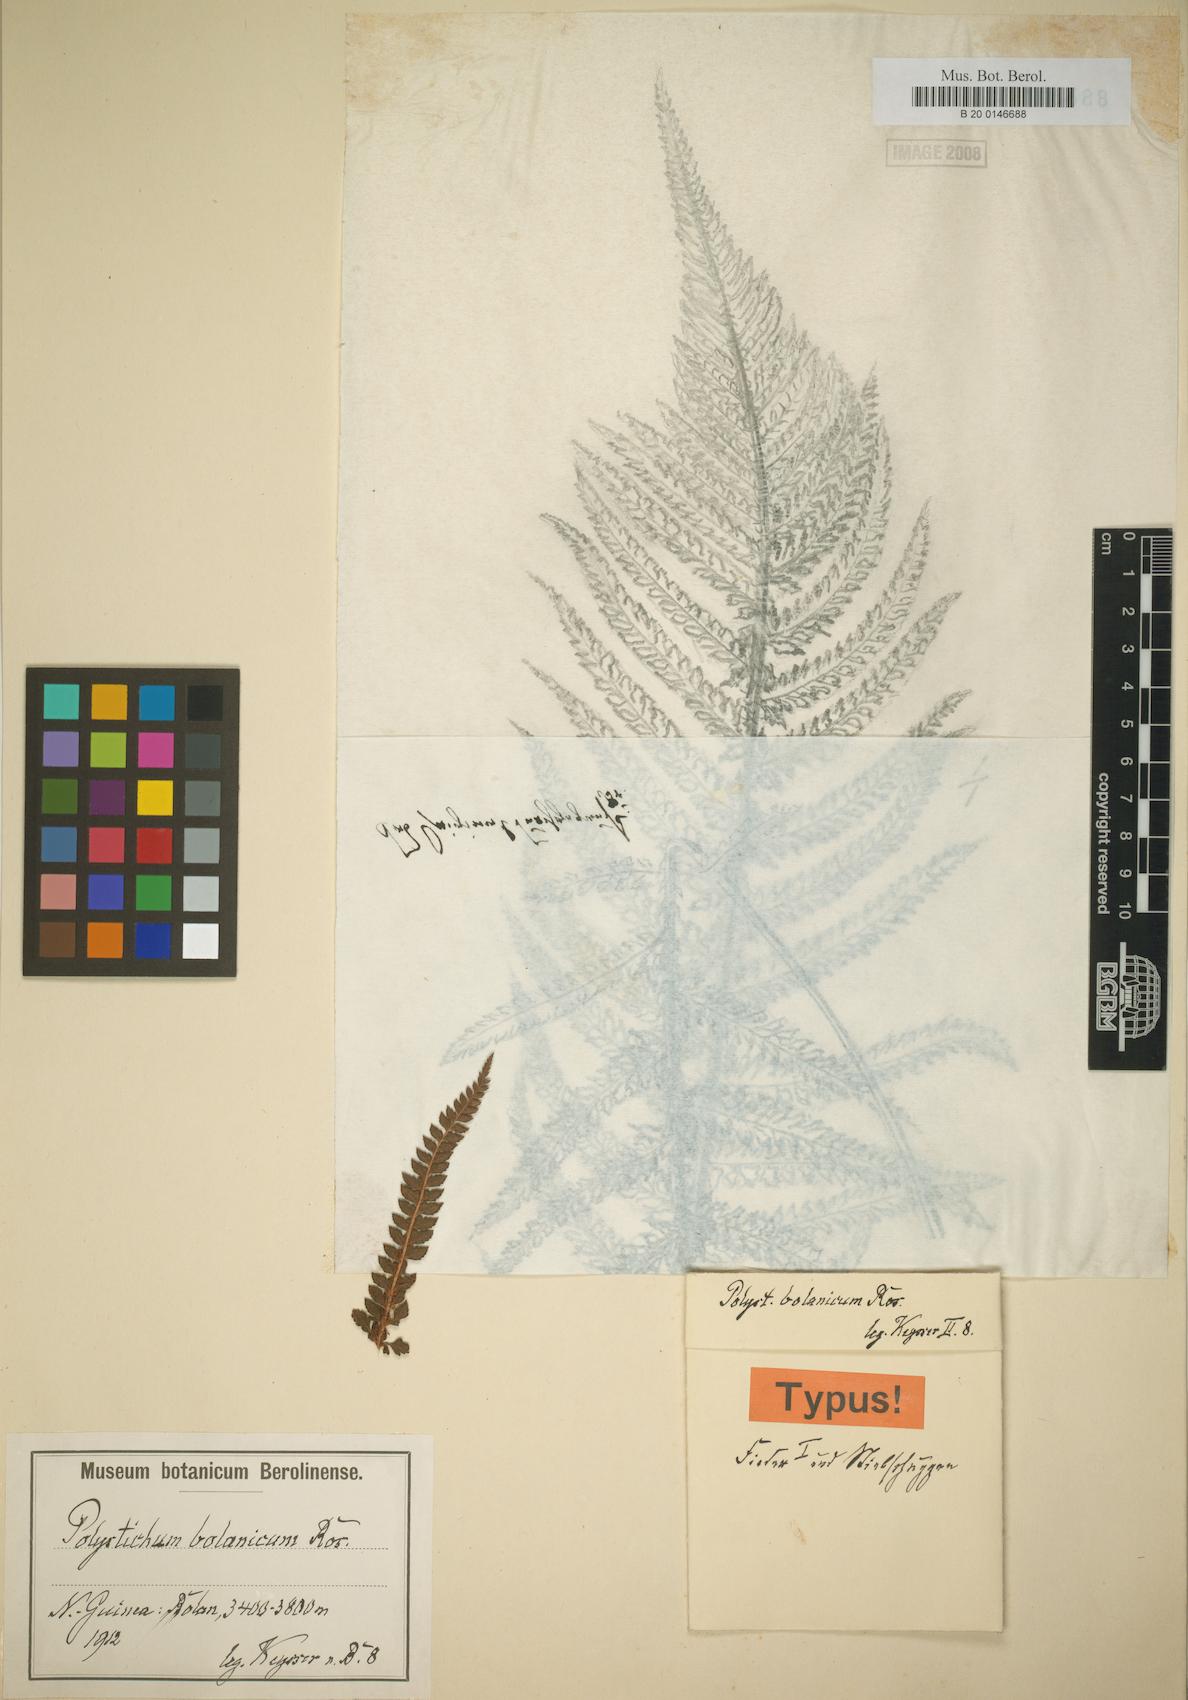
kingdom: Plantae
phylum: Tracheophyta
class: Polypodiopsida
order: Polypodiales
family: Dryopteridaceae
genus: Polystichum
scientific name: Polystichum bolanicum
